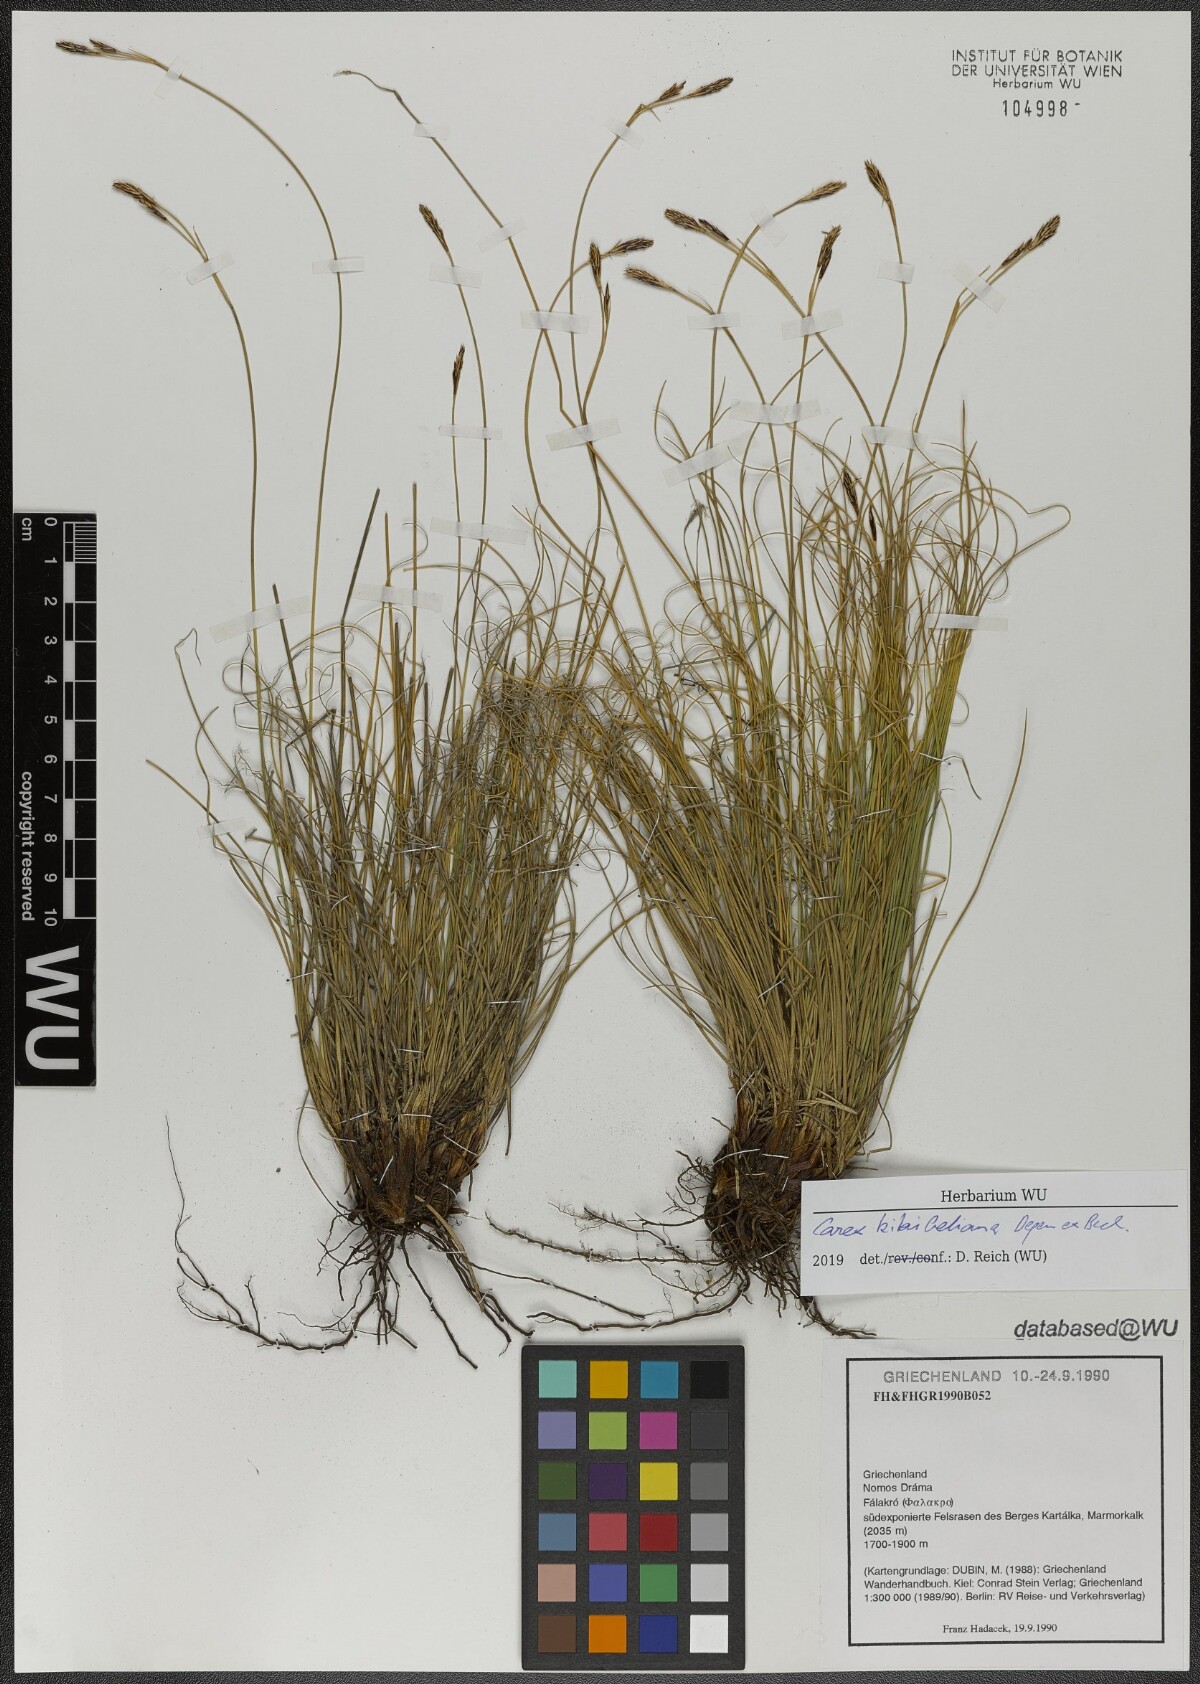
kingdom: Plantae
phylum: Tracheophyta
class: Liliopsida
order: Poales
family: Cyperaceae
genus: Carex
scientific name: Carex kitaibeliana
